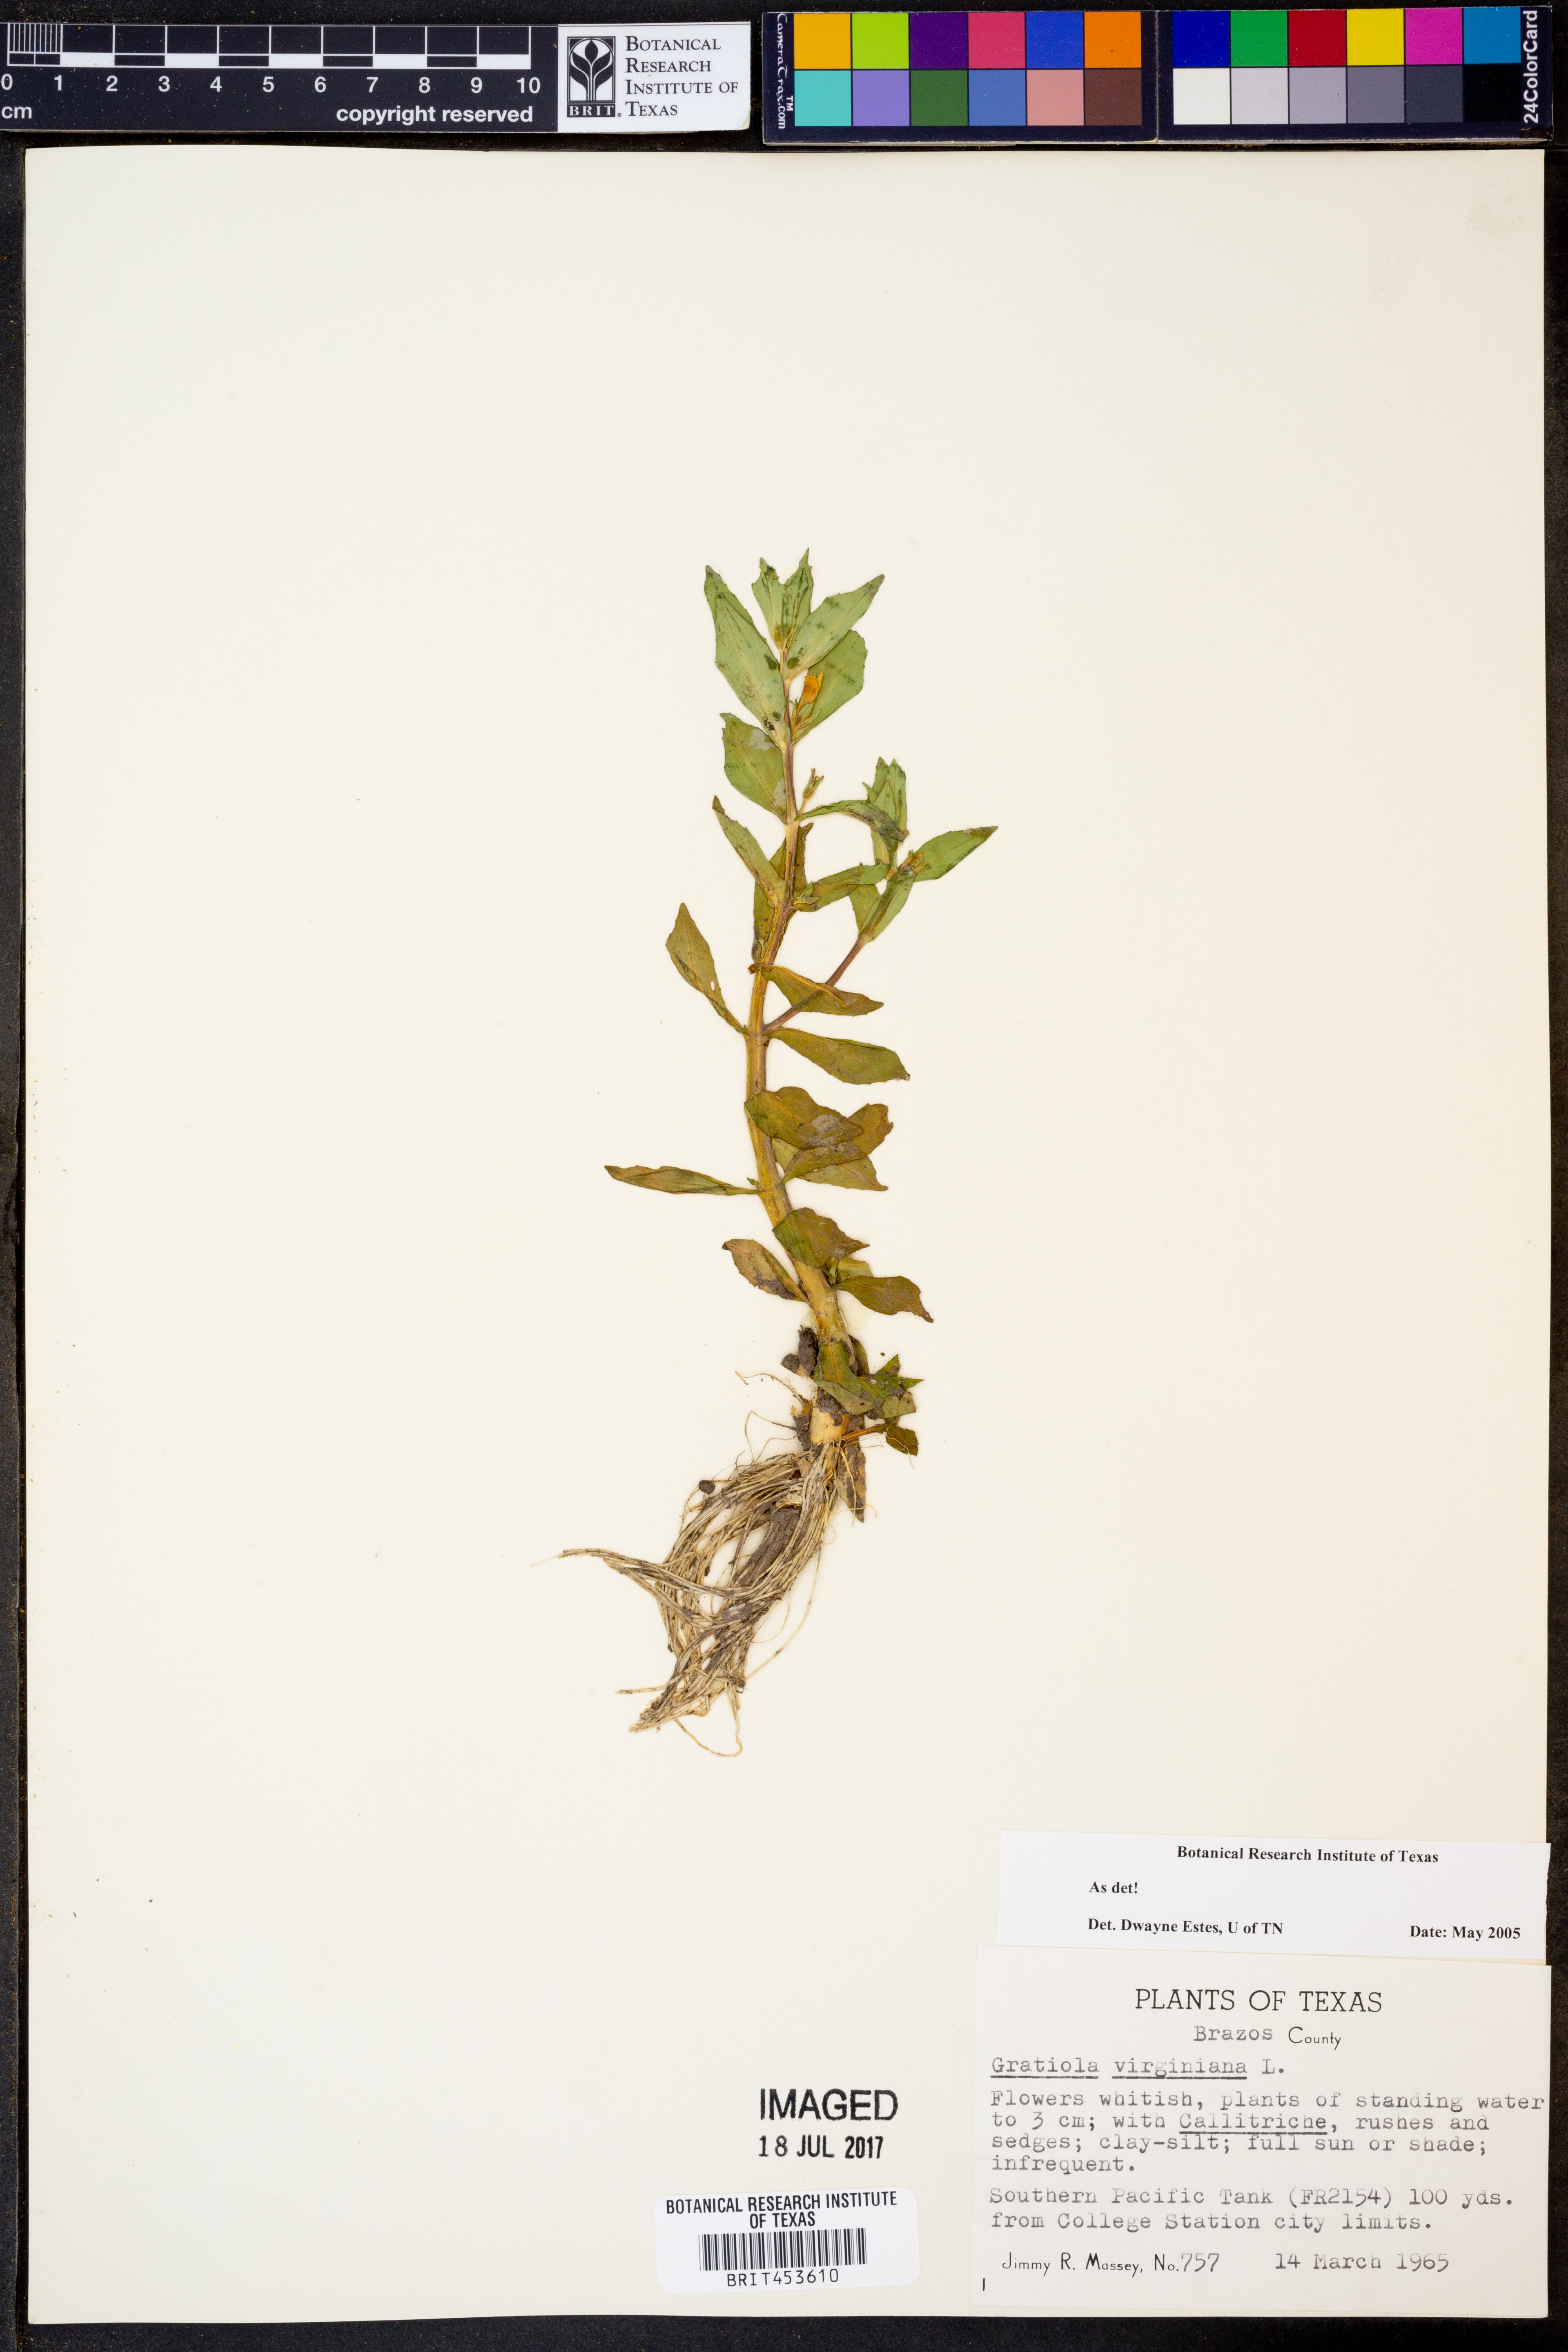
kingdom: Plantae
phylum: Tracheophyta
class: Magnoliopsida
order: Lamiales
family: Plantaginaceae
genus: Gratiola
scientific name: Gratiola virginiana
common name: Roundfruit hedgehyssop
